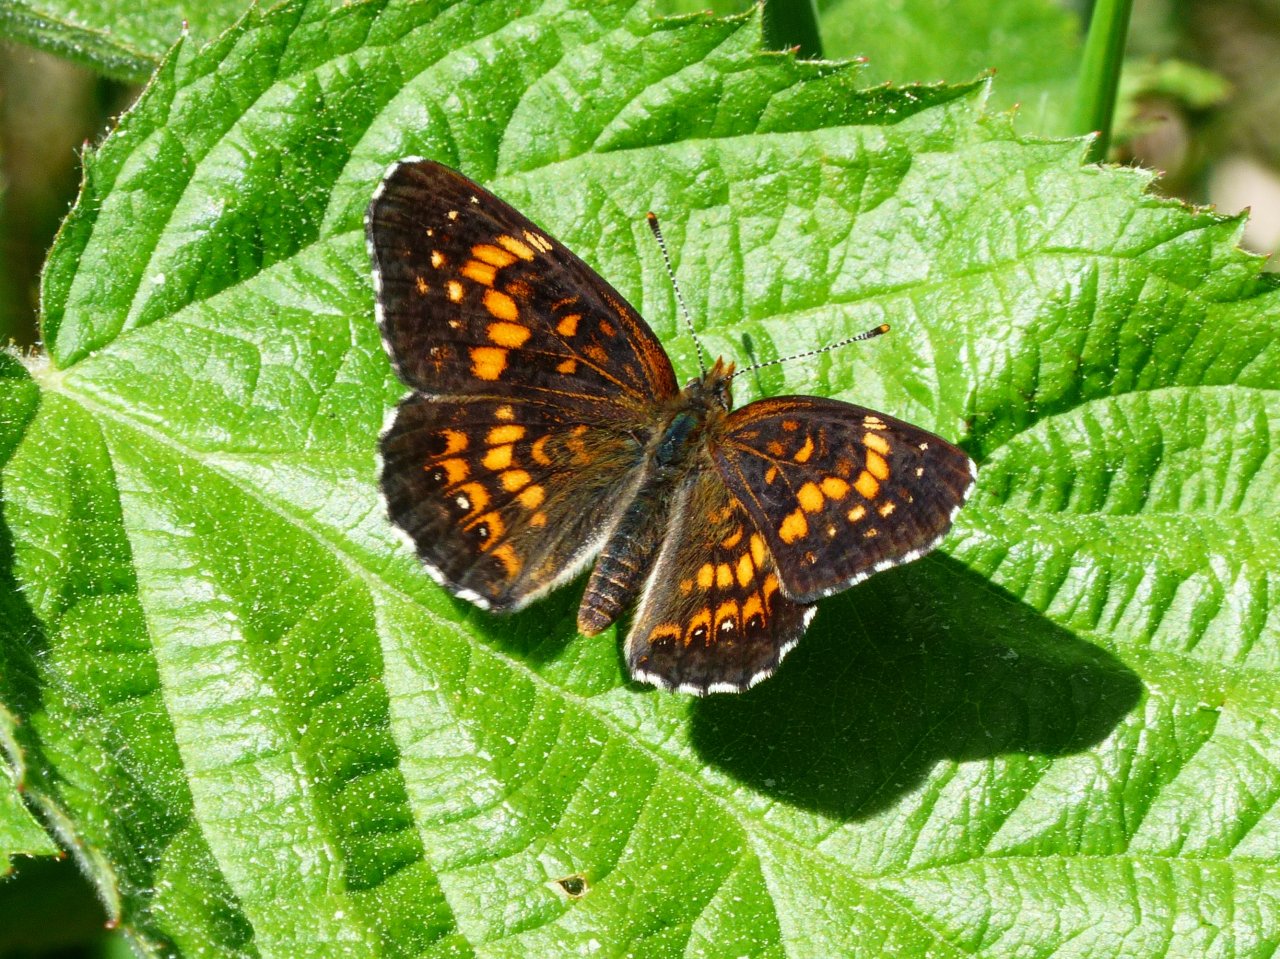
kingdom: Animalia
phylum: Arthropoda
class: Insecta
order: Lepidoptera
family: Nymphalidae
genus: Chlosyne
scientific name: Chlosyne harrisii
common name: Harris's Checkerspot
